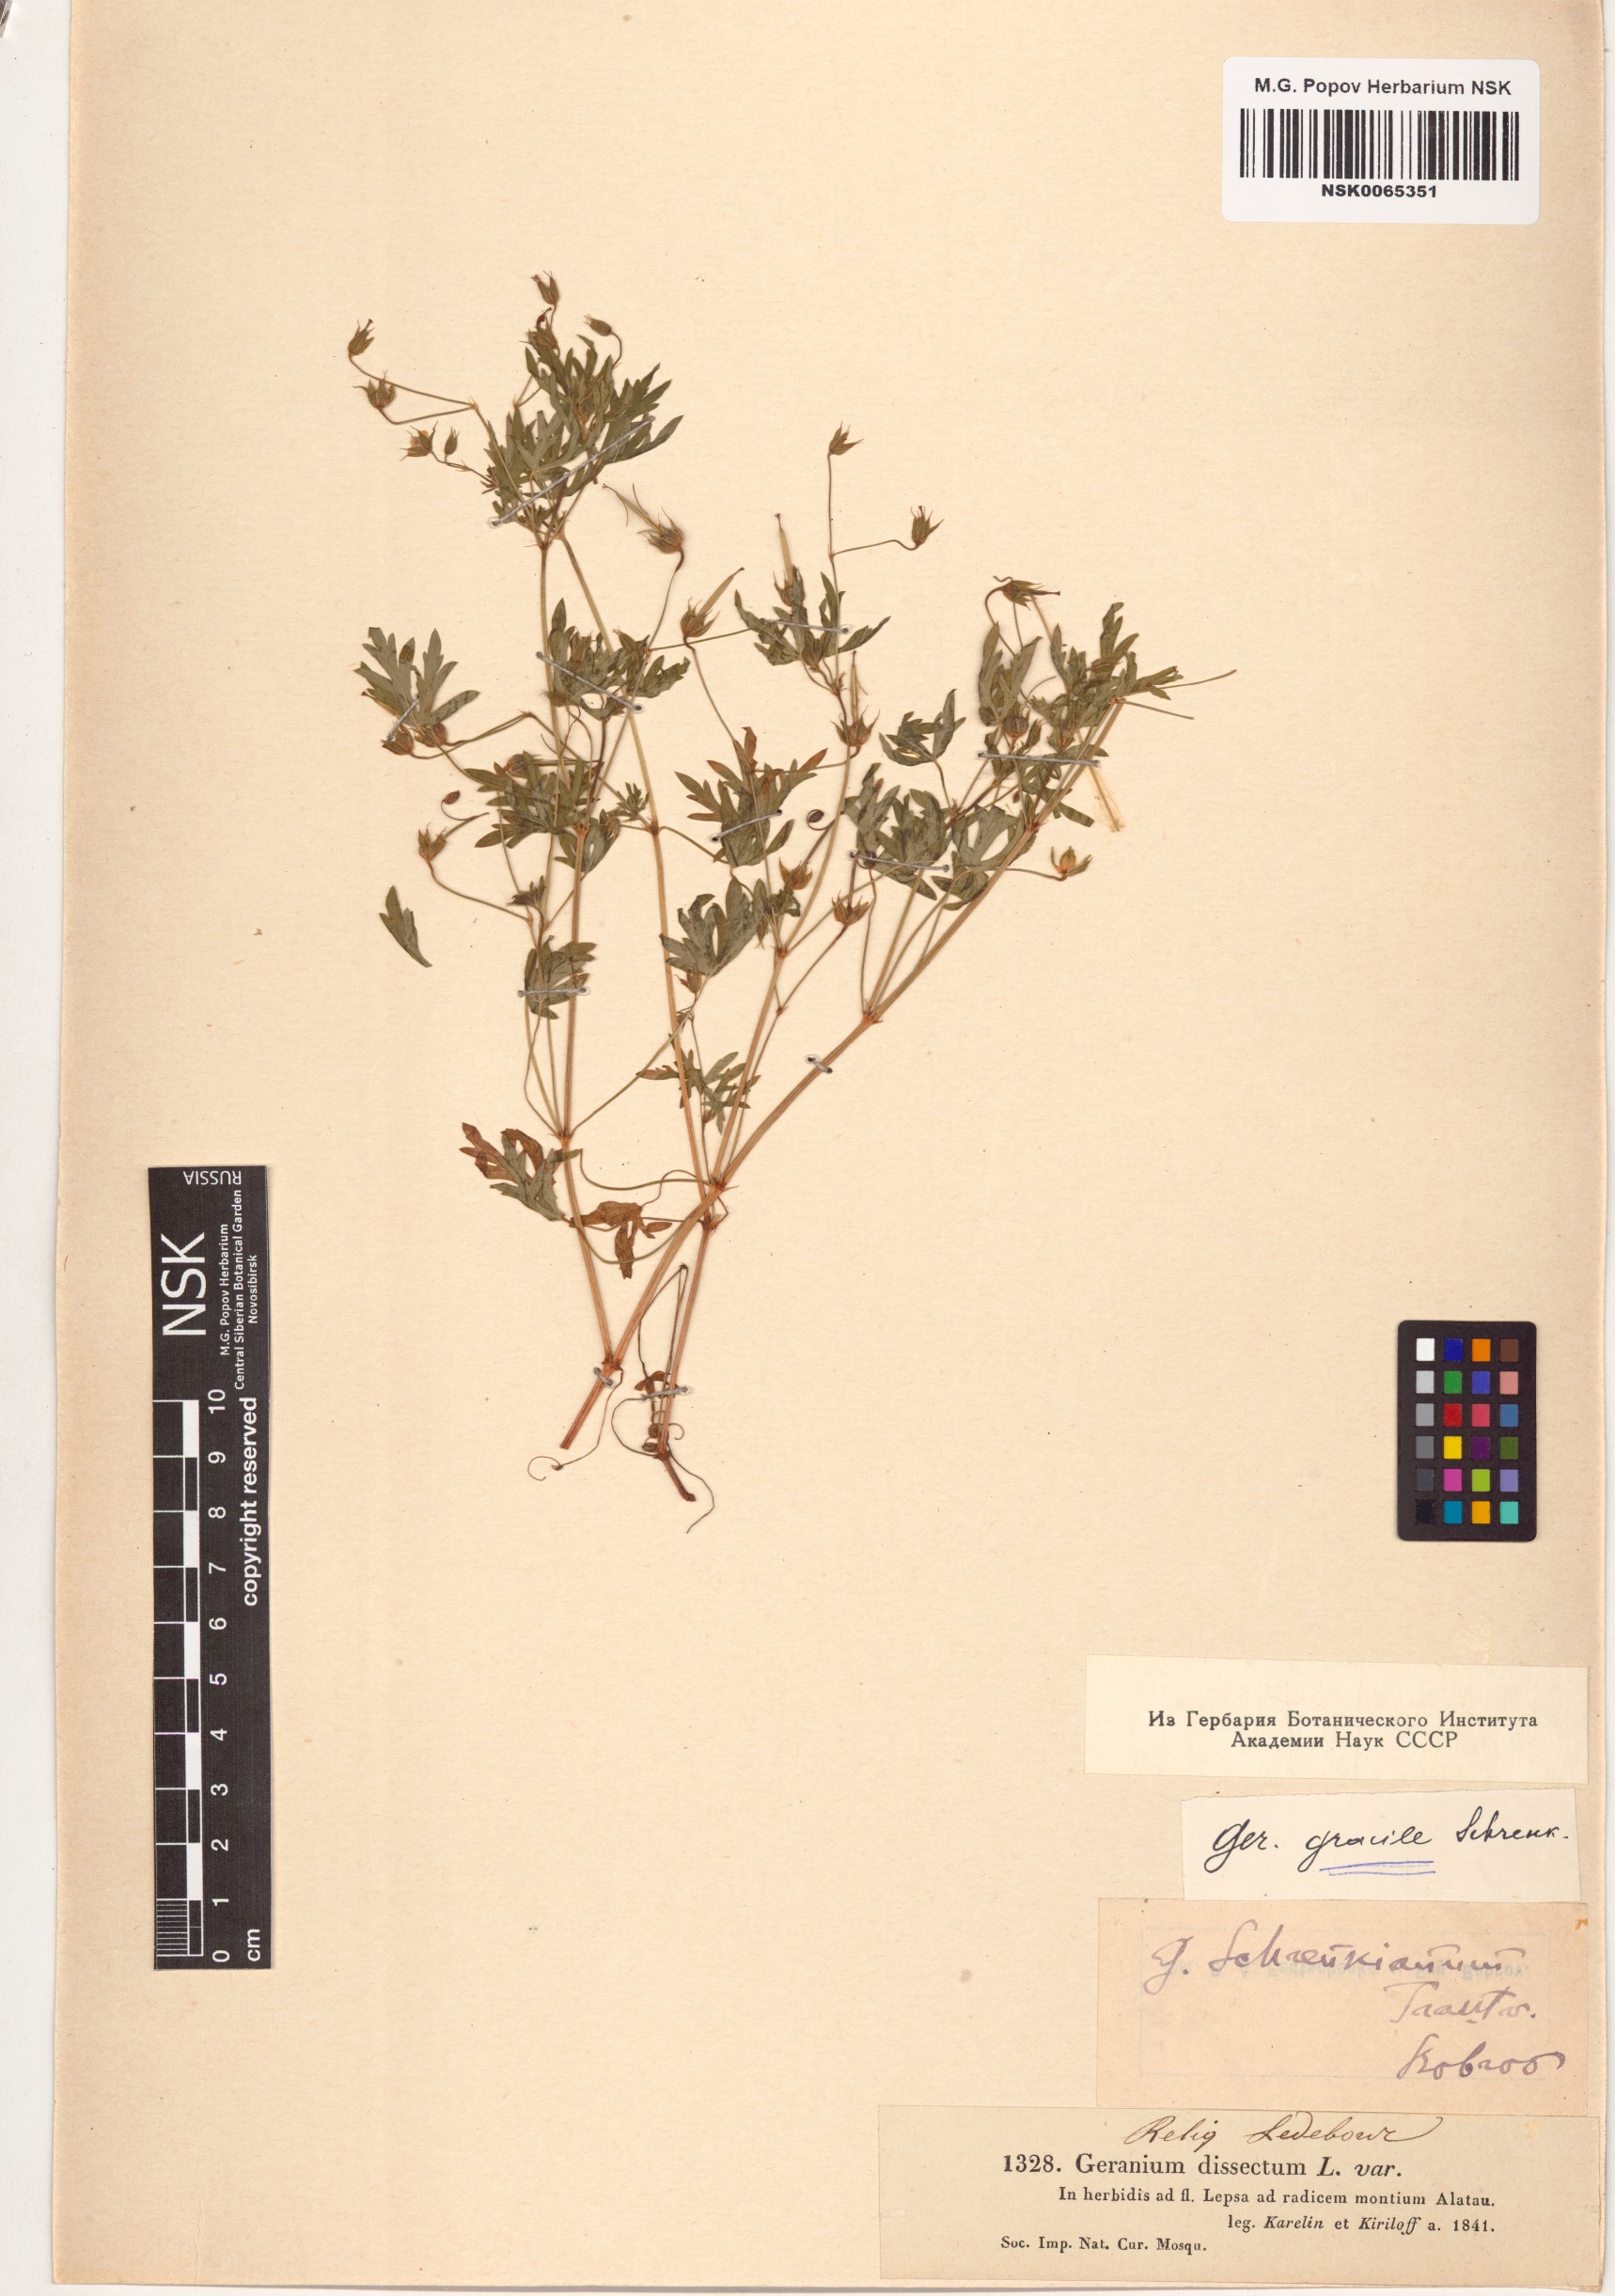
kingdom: Plantae
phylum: Tracheophyta
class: Magnoliopsida
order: Geraniales
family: Geraniaceae
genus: Geranium
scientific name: Geranium gracile
